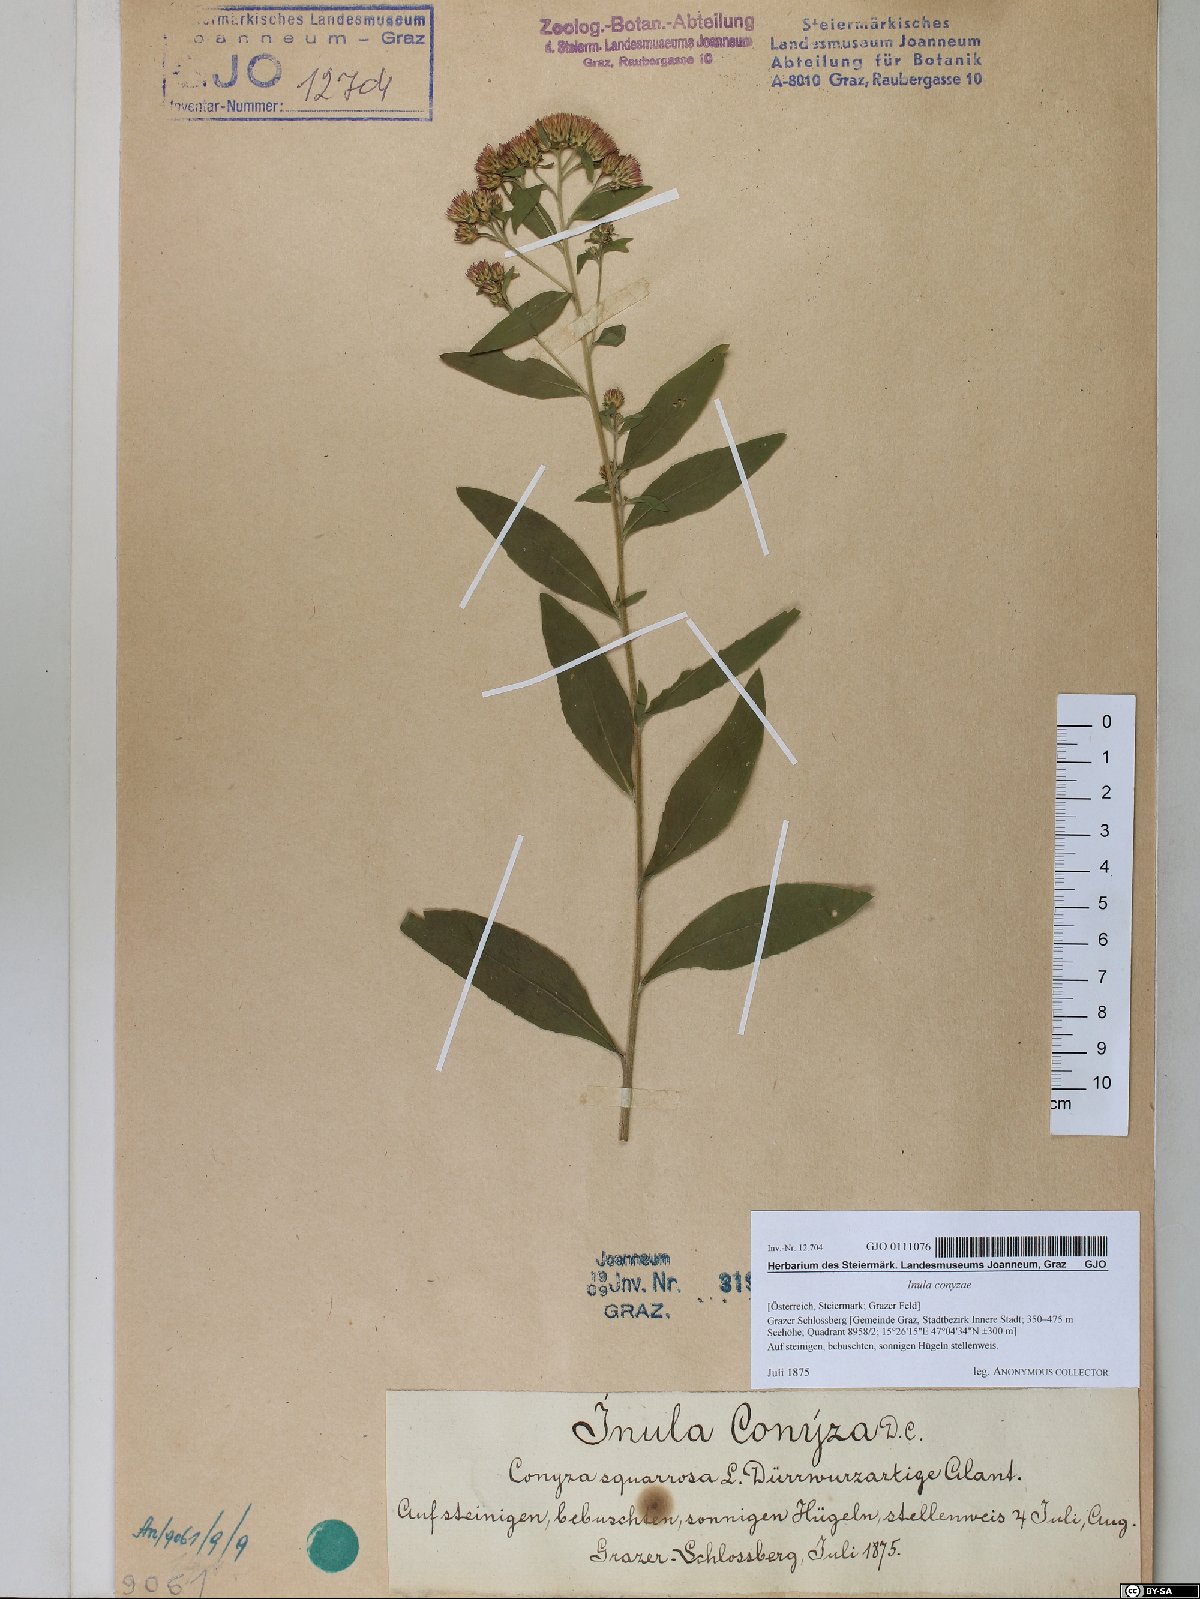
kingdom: Plantae
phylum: Tracheophyta
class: Magnoliopsida
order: Asterales
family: Asteraceae
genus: Pentanema
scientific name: Pentanema squarrosum
